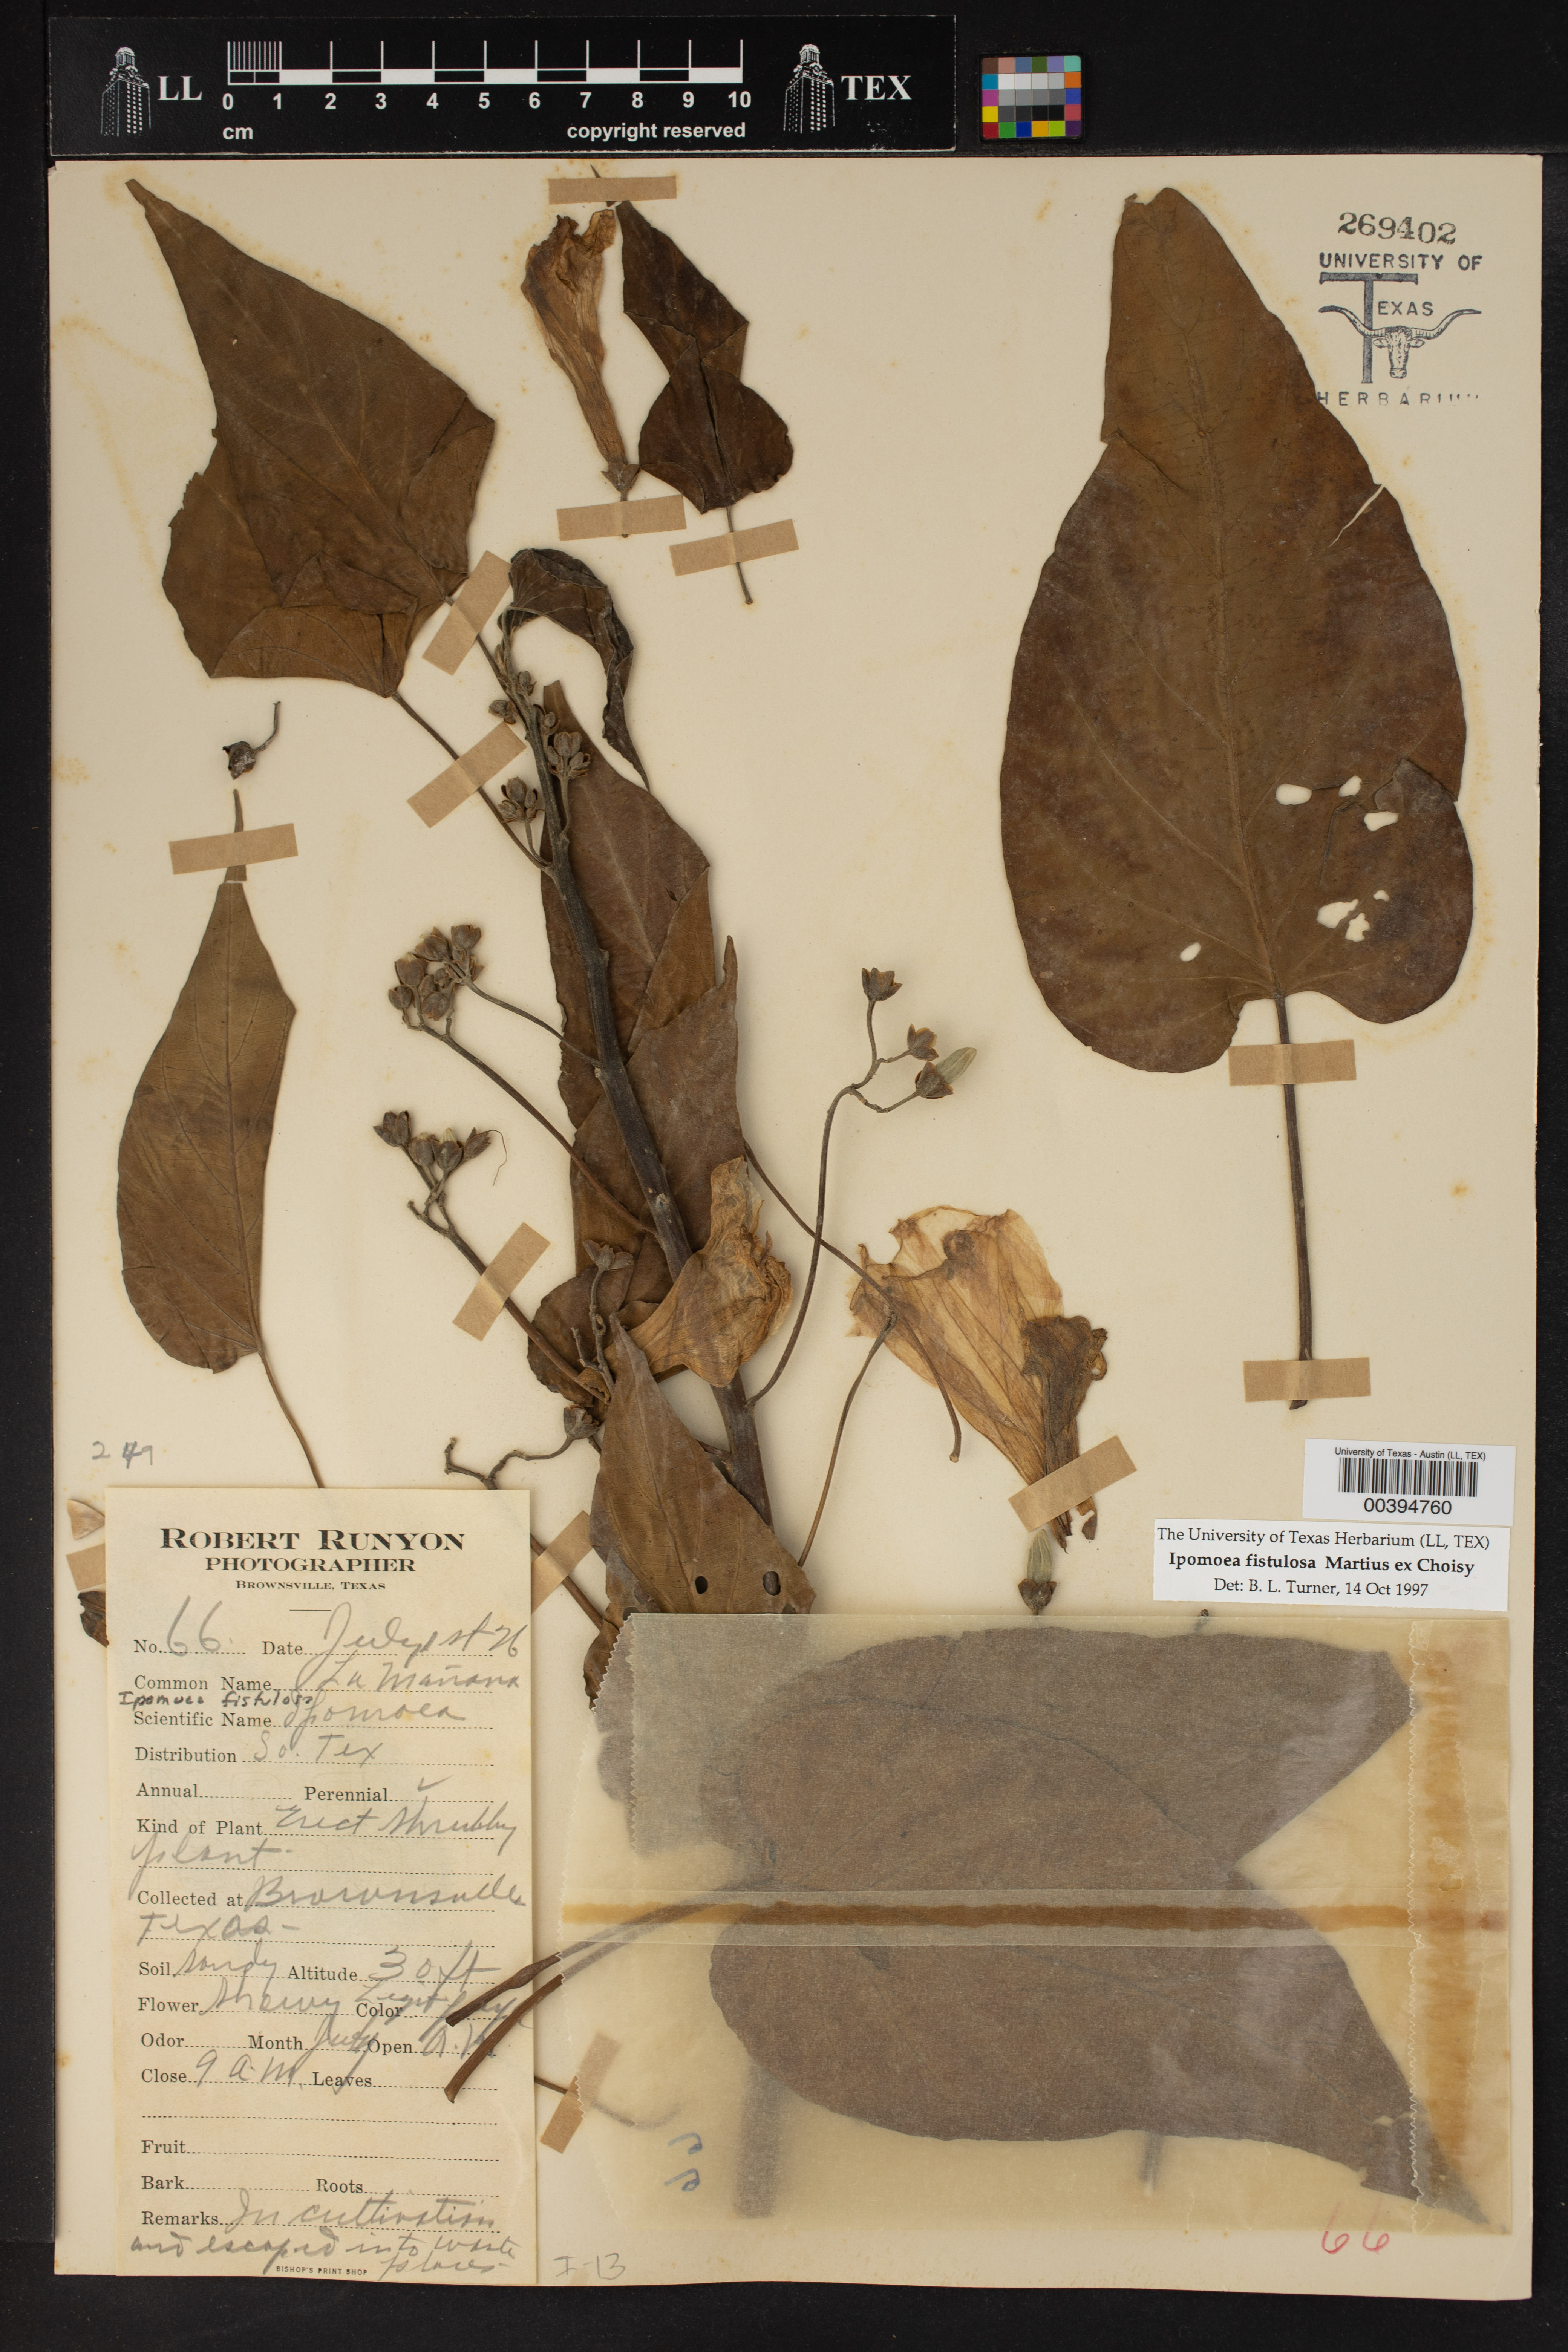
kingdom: Plantae
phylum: Tracheophyta
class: Magnoliopsida
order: Solanales
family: Convolvulaceae
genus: Ipomoea
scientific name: Ipomoea carnea
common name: Morning-glory
